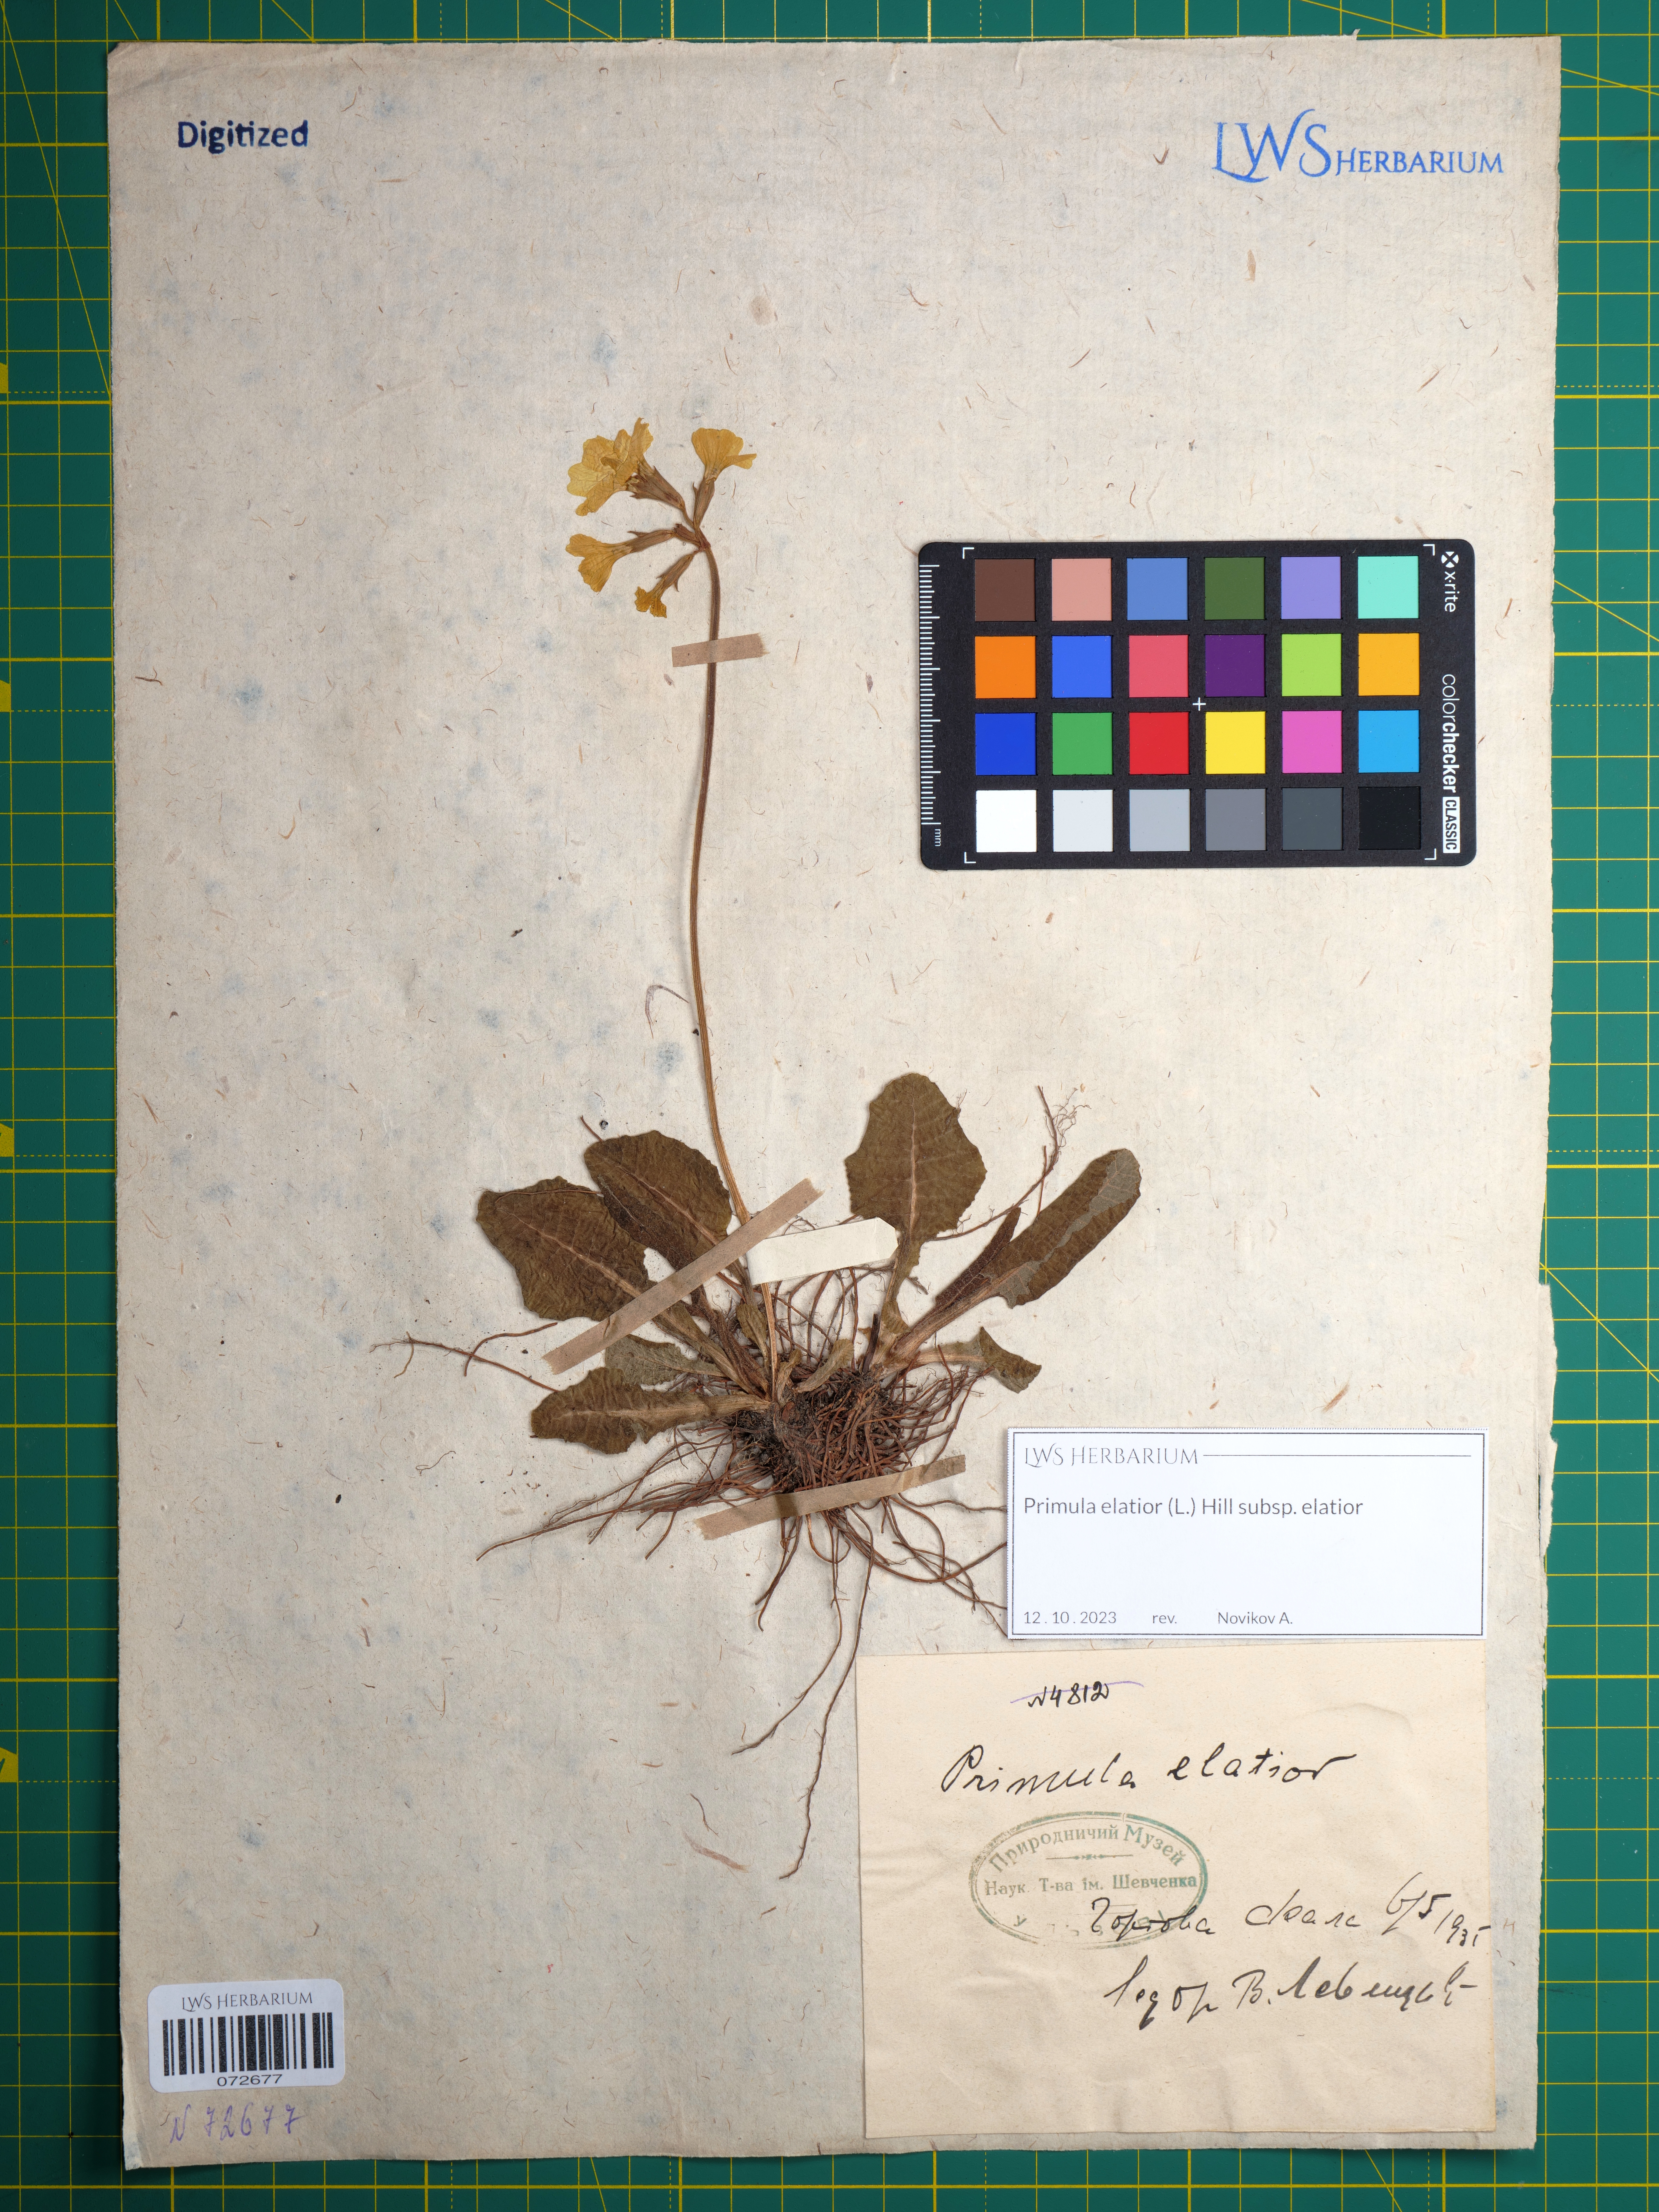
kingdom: Plantae
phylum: Tracheophyta
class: Magnoliopsida
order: Ericales
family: Primulaceae
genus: Primula
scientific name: Primula elatior
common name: Oxlip
